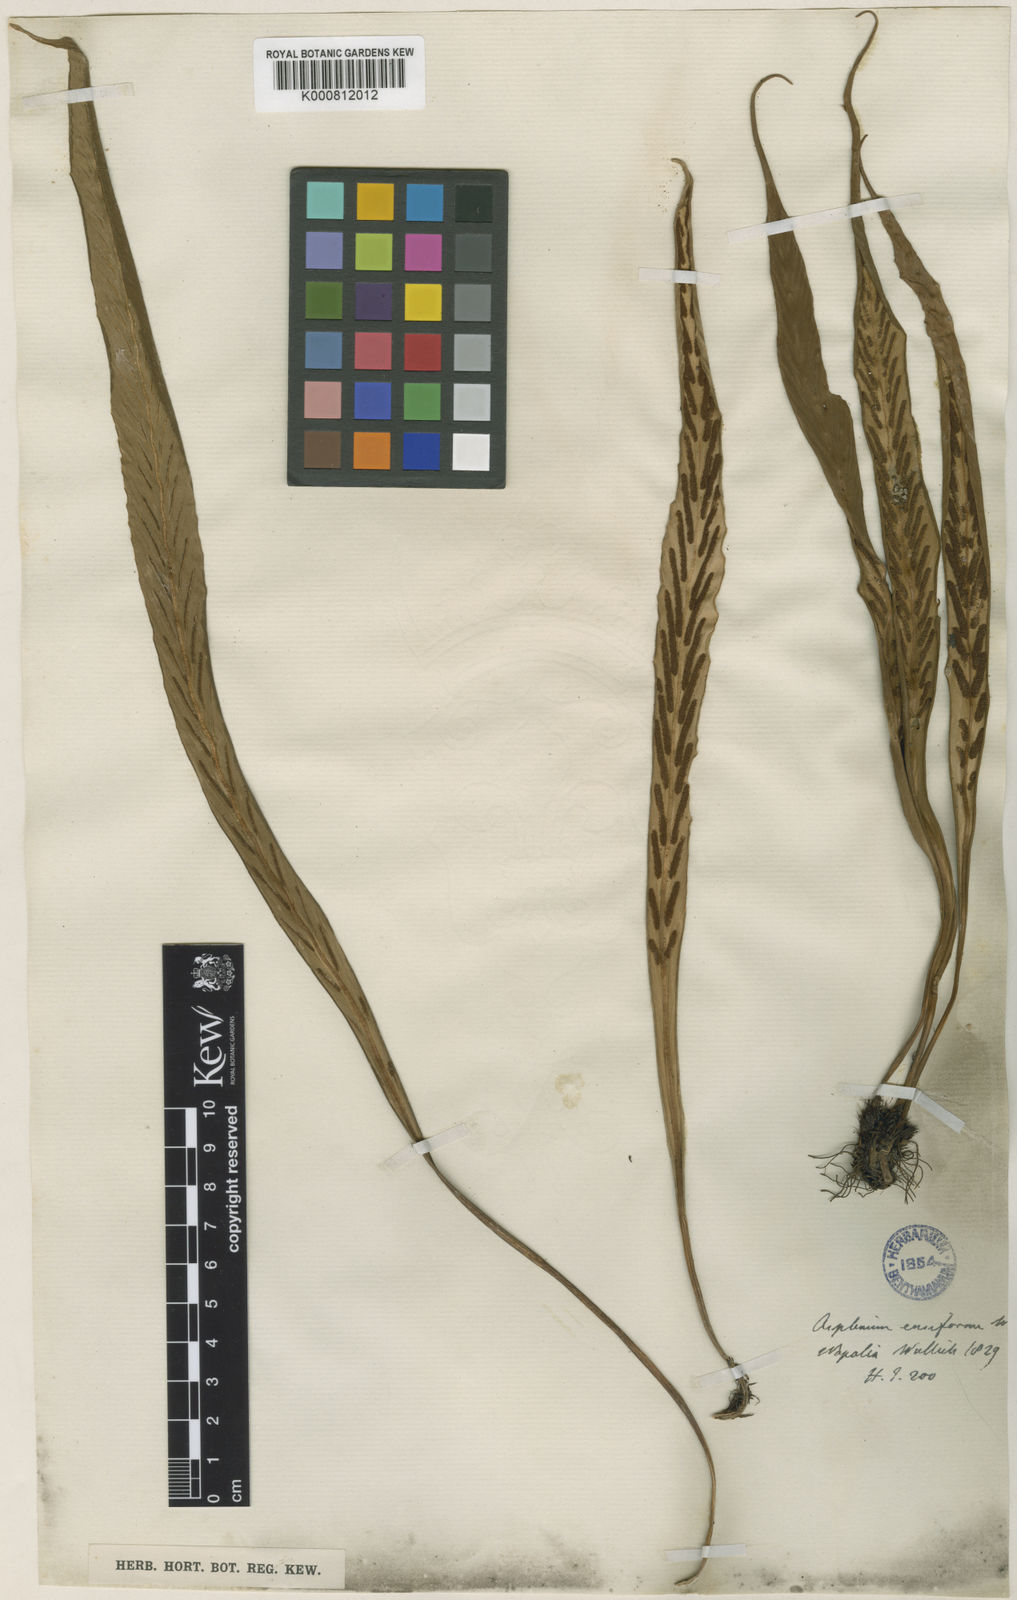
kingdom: Plantae
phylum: Tracheophyta
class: Polypodiopsida
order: Polypodiales
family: Aspleniaceae
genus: Asplenium
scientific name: Asplenium ensiforme
